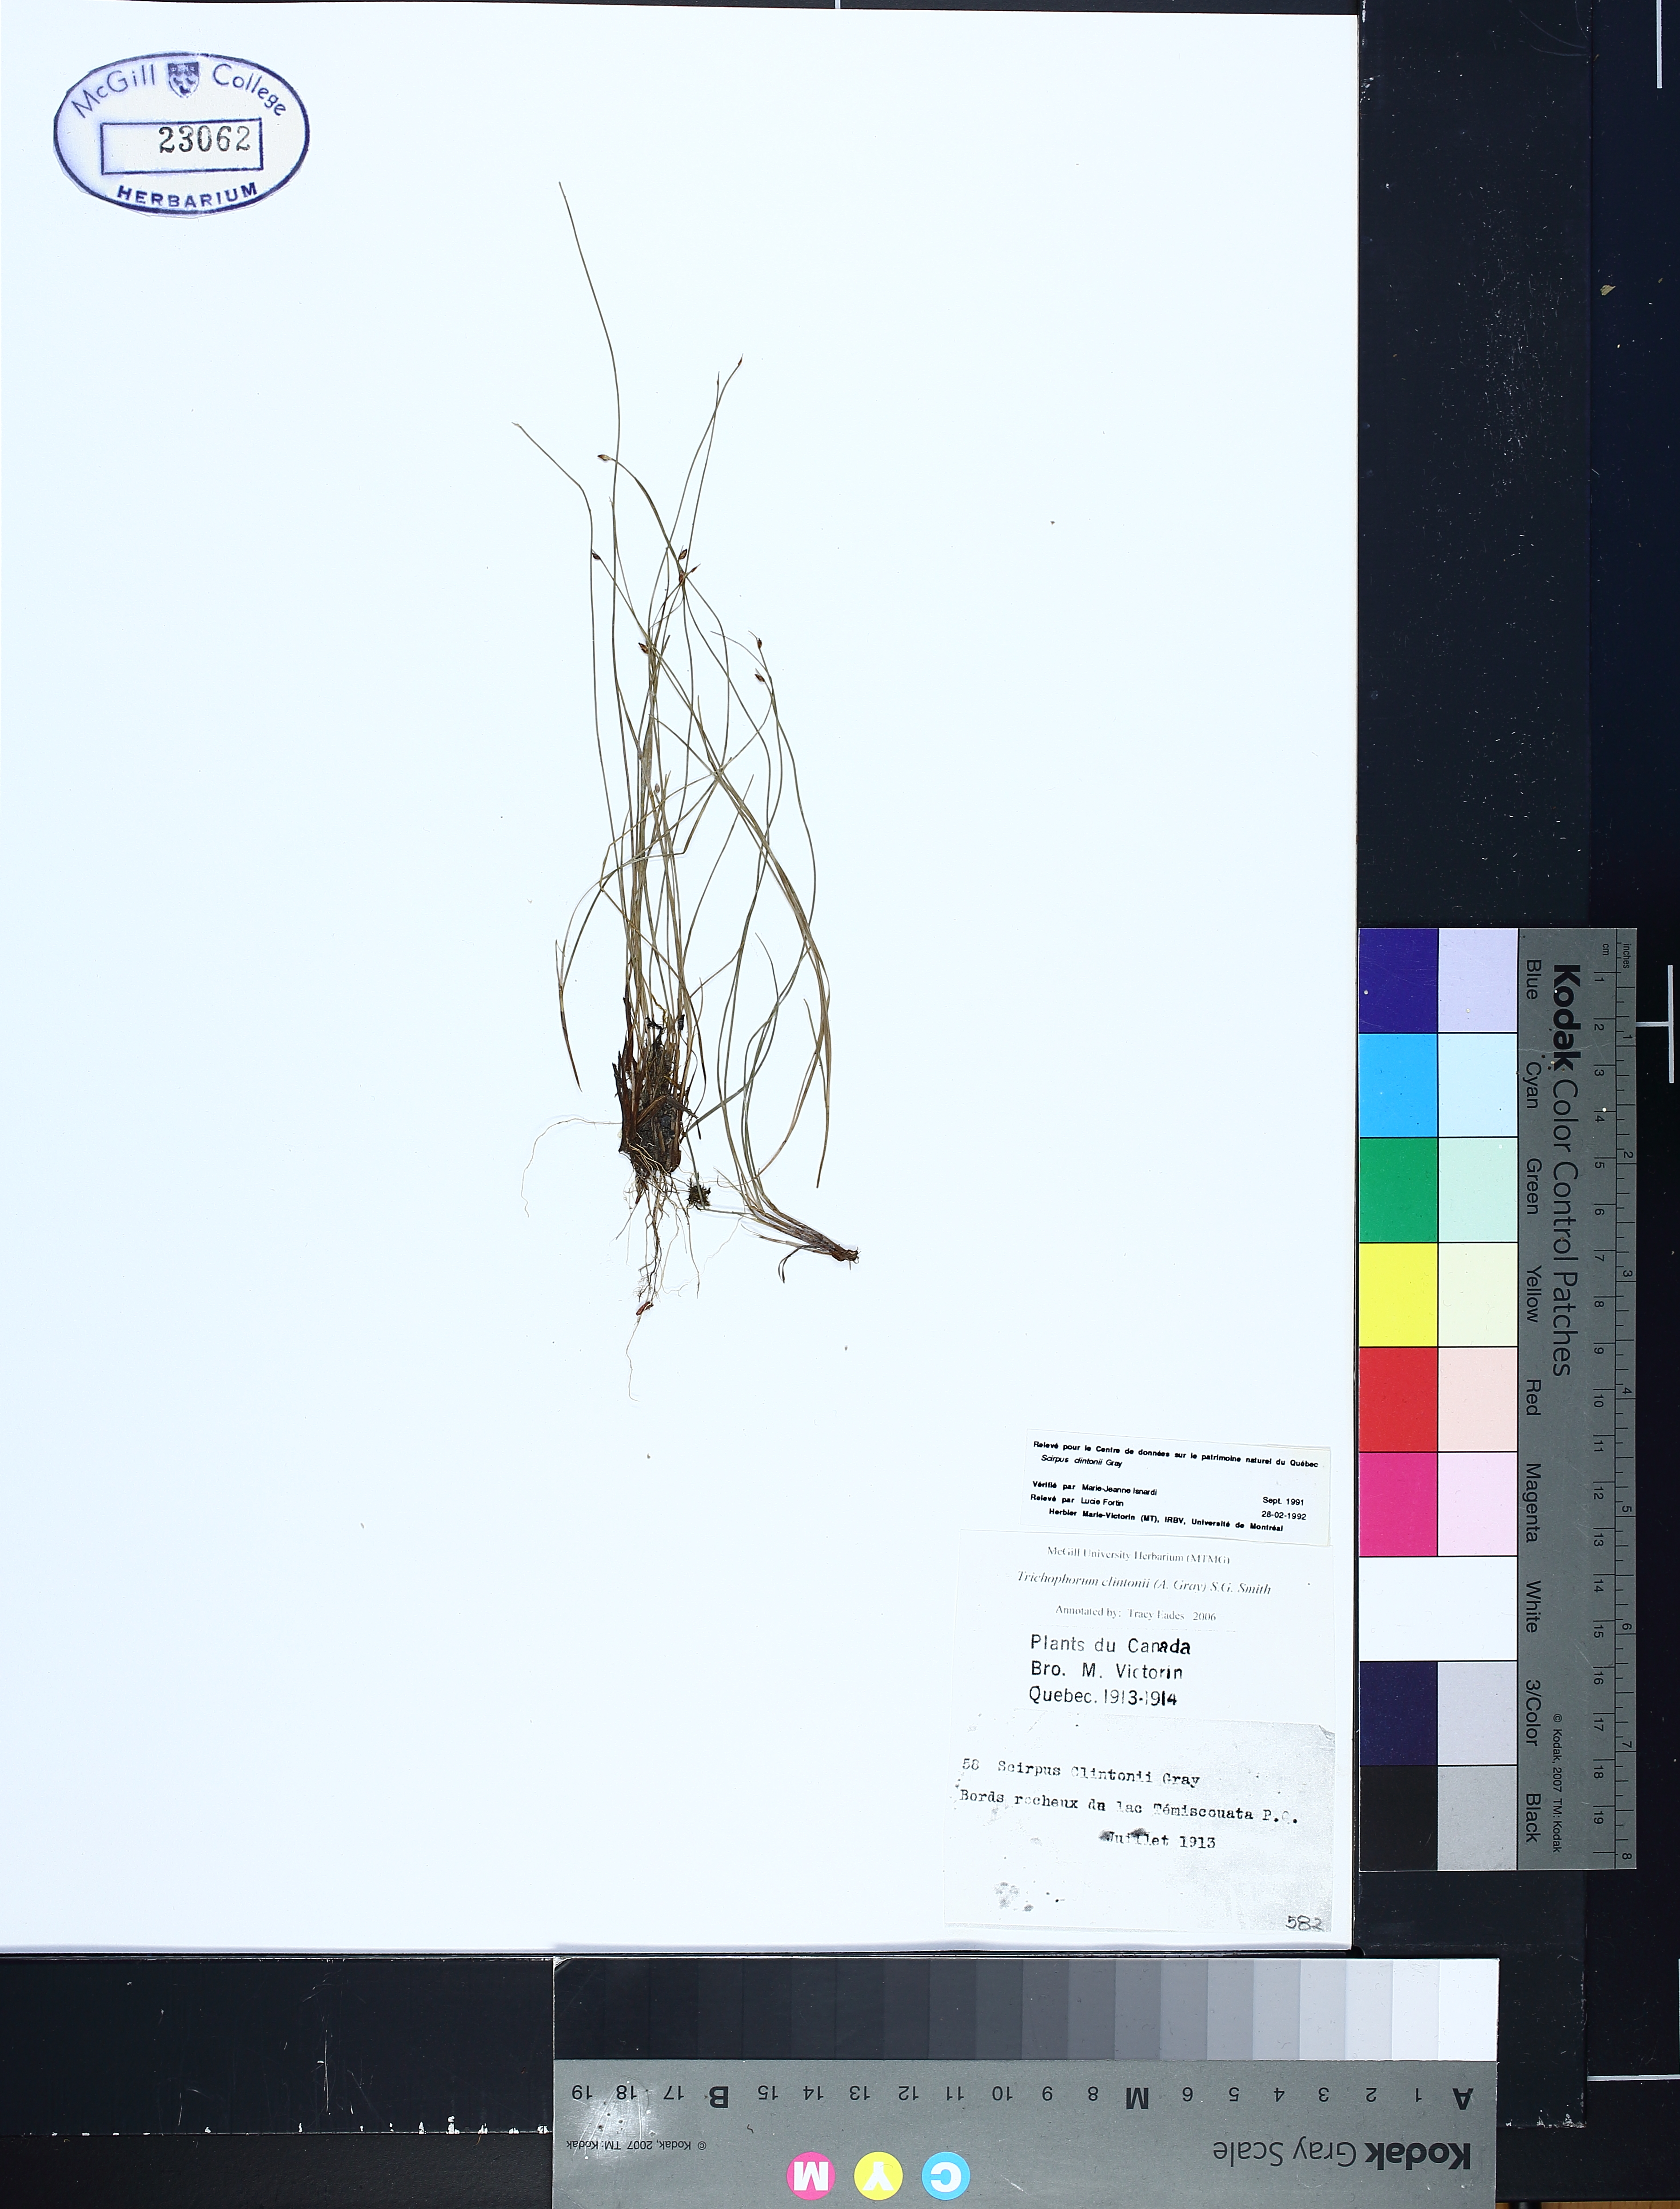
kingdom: Plantae
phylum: Tracheophyta
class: Liliopsida
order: Poales
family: Cyperaceae
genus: Trichophorum
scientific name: Trichophorum clintonii
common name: Clinton's bulrush
